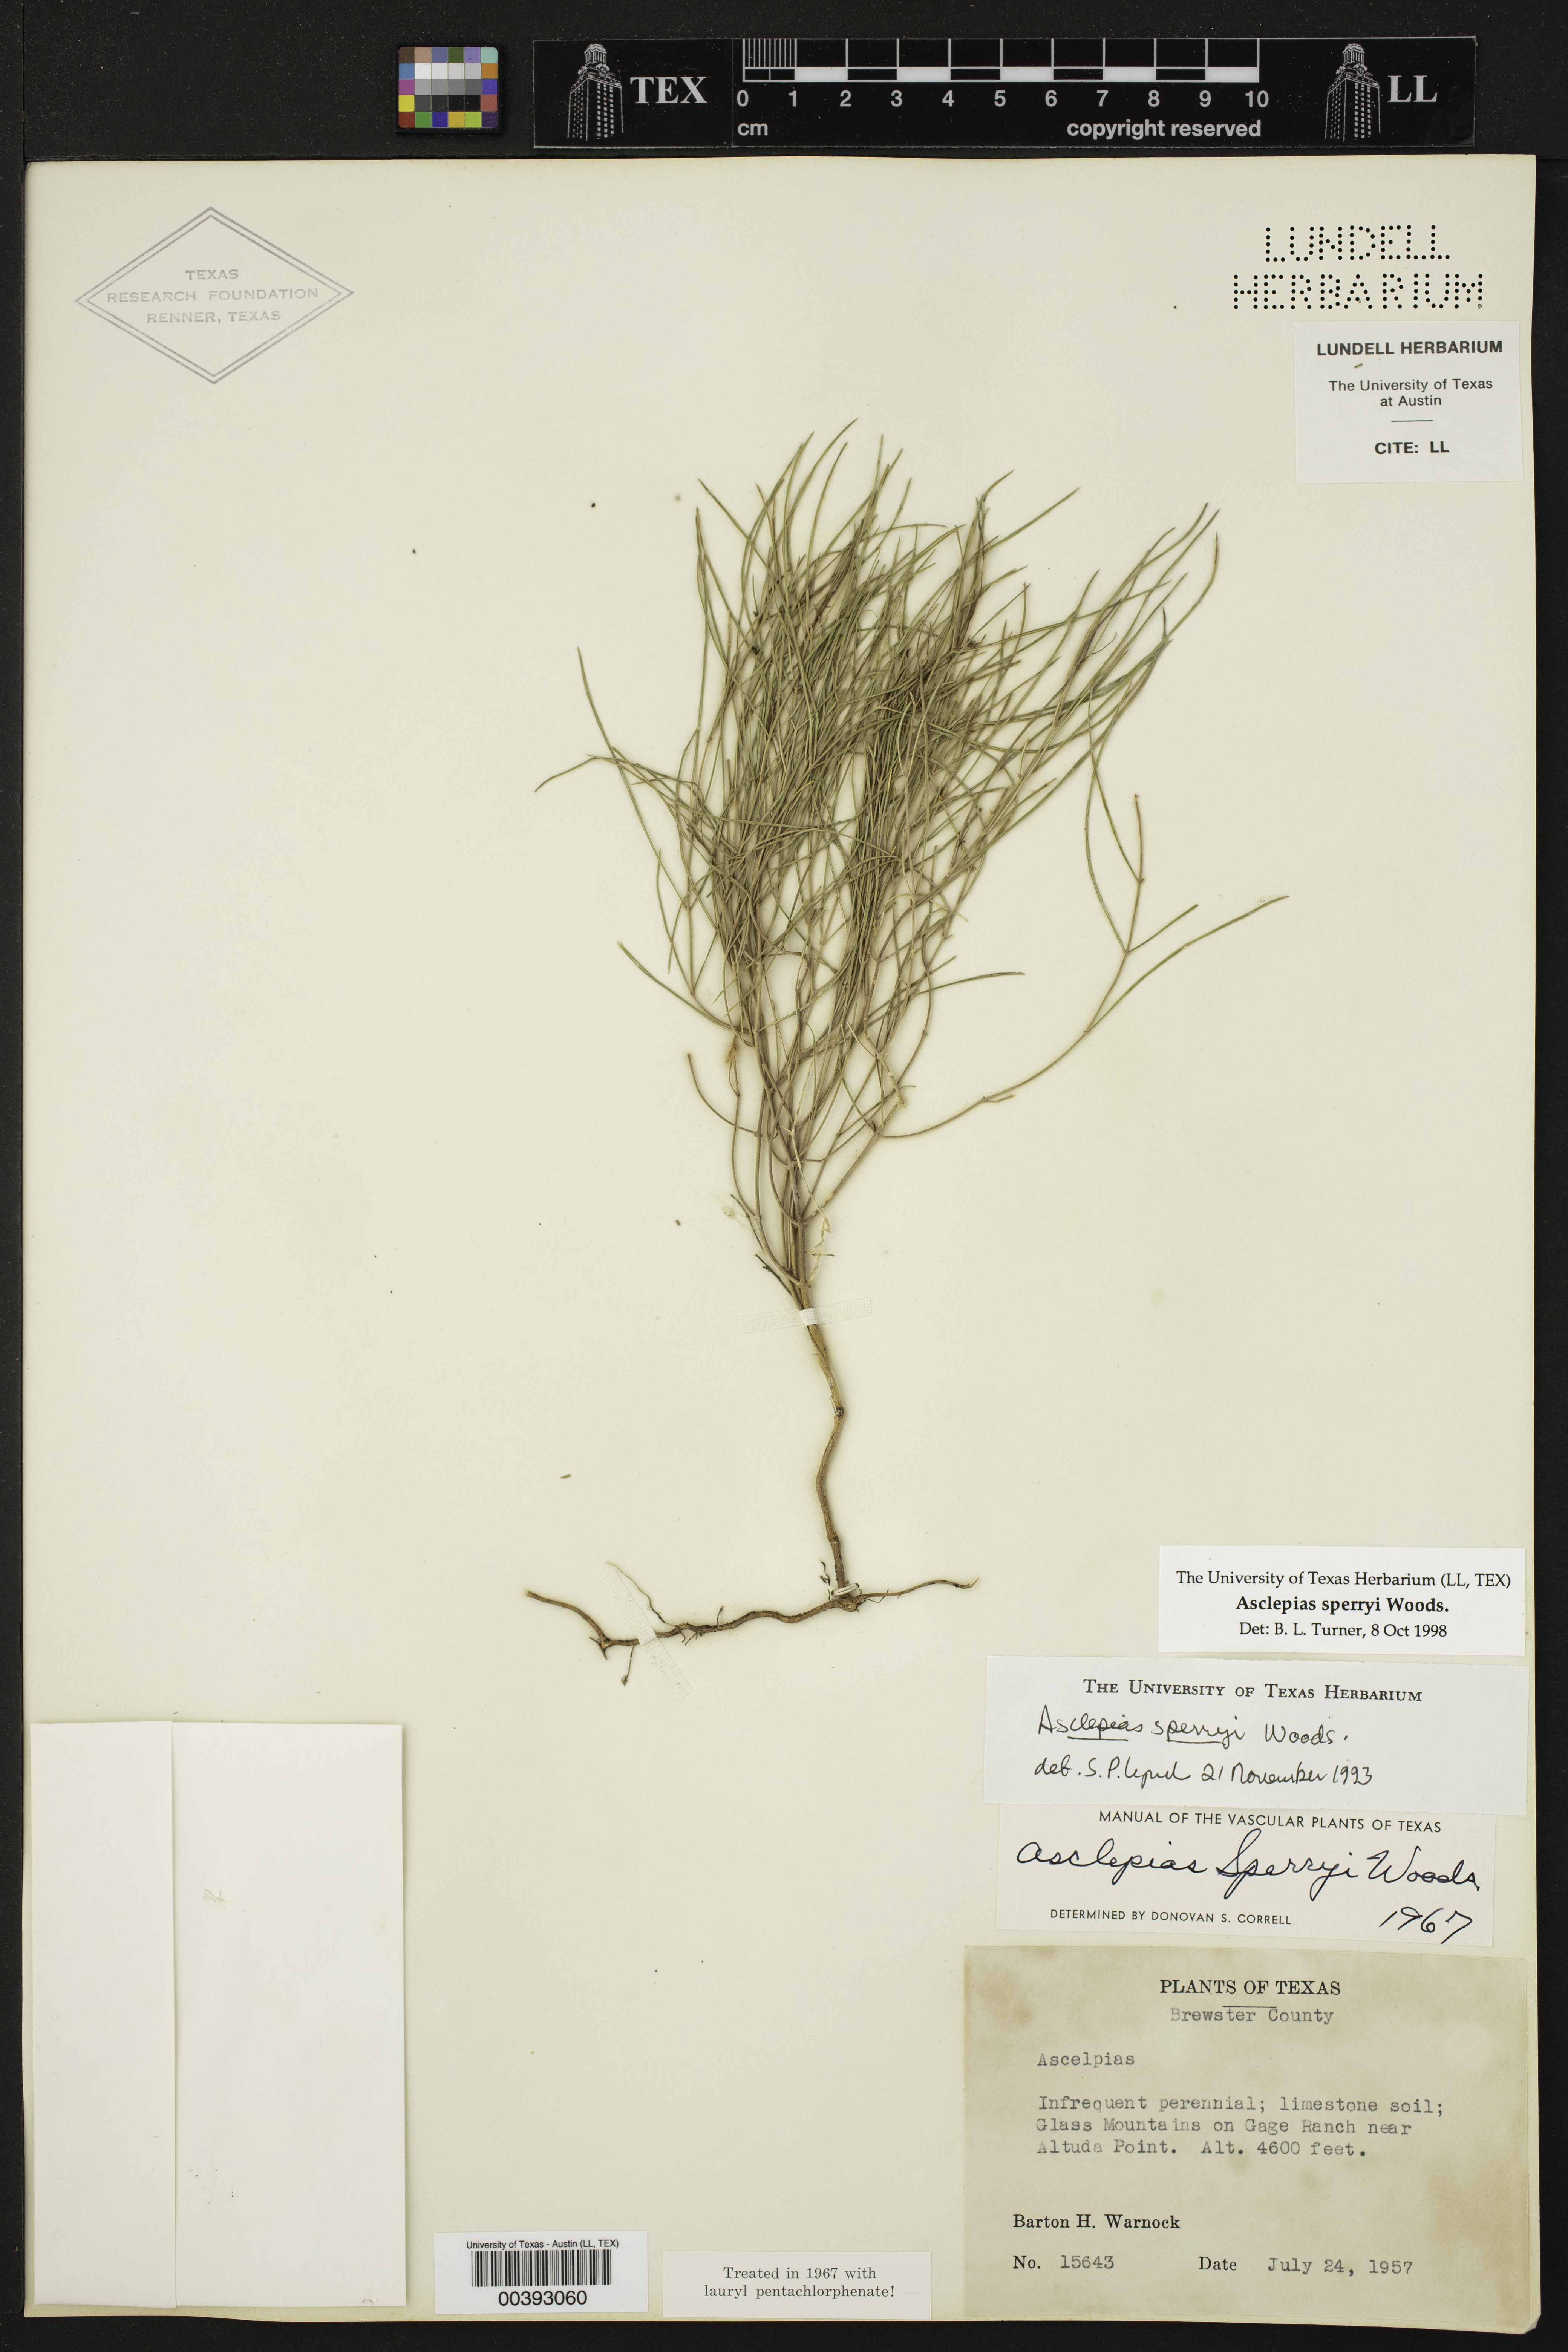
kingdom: Plantae
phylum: Tracheophyta
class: Magnoliopsida
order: Gentianales
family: Apocynaceae
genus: Asclepias
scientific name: Asclepias sperryi
